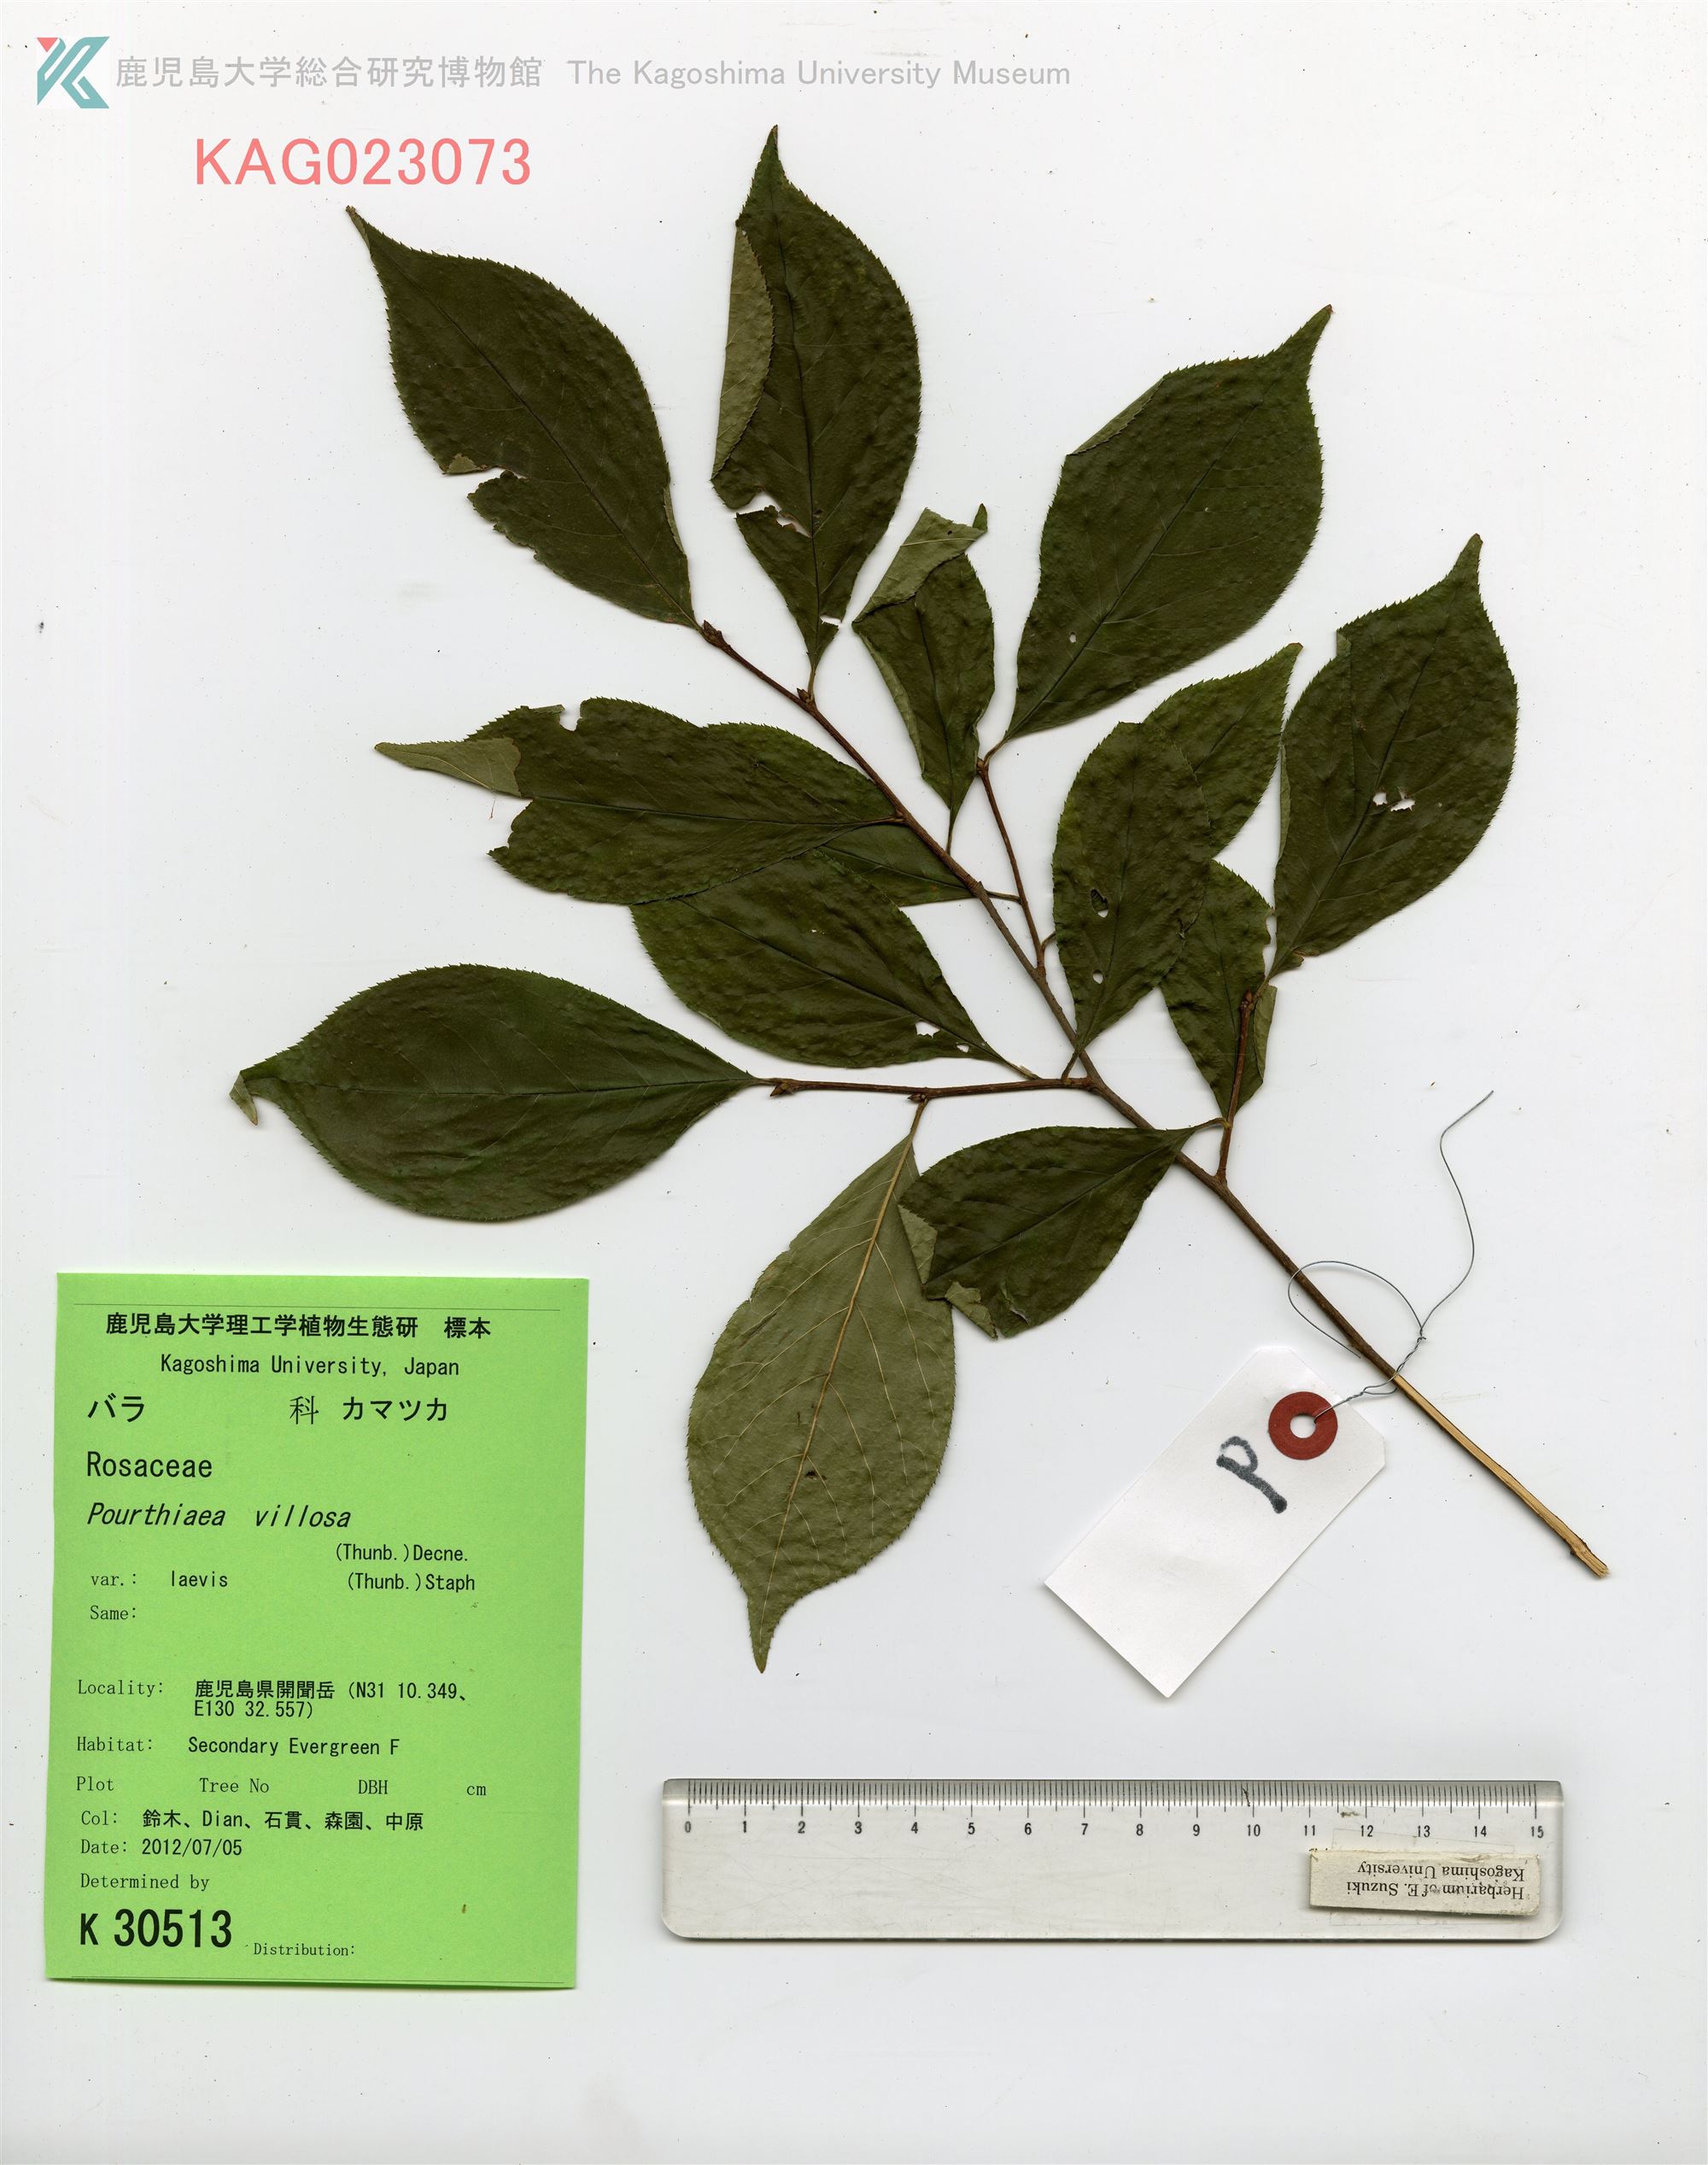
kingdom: Plantae
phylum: Tracheophyta
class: Magnoliopsida
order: Rosales
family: Rosaceae
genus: Pourthiaea
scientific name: Pourthiaea villosa
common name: カマツカ
